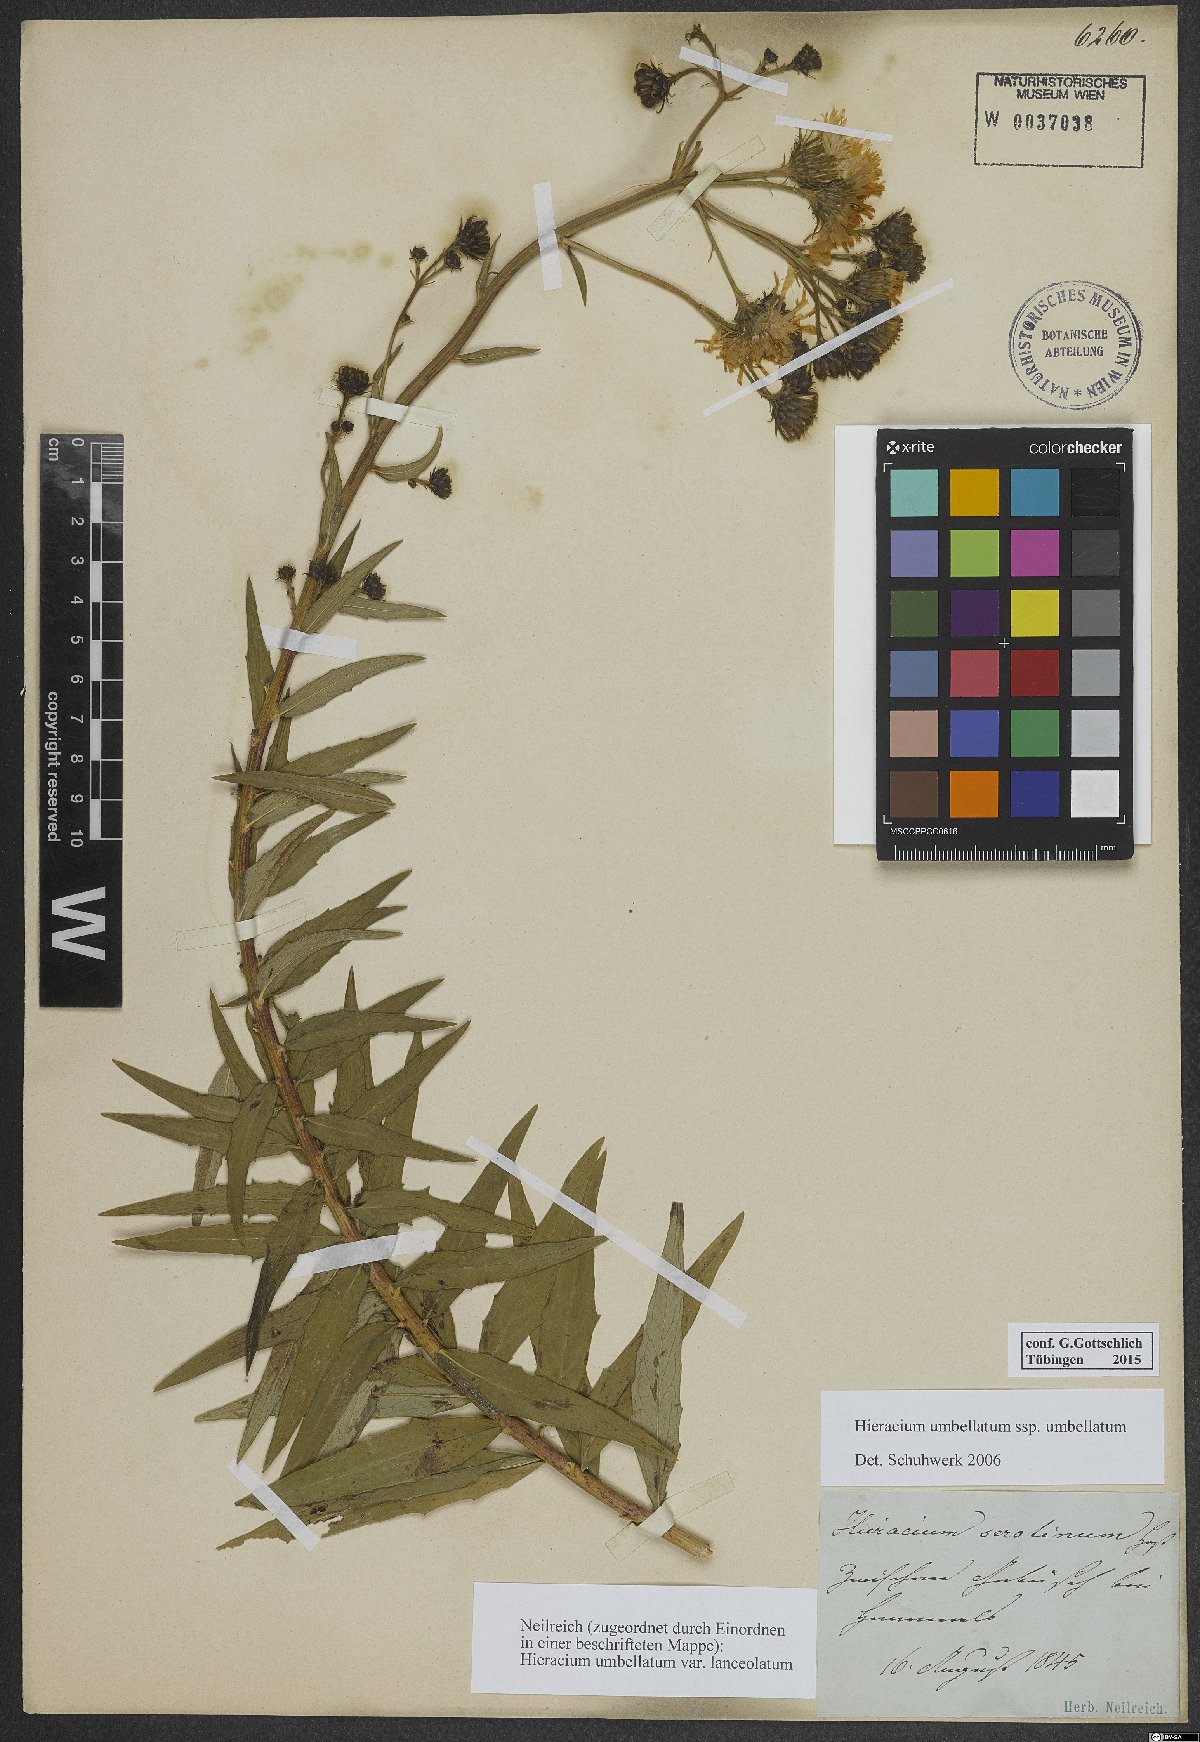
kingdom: Plantae
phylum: Tracheophyta
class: Magnoliopsida
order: Asterales
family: Asteraceae
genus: Hieracium
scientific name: Hieracium umbellatum
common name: Northern hawkweed
